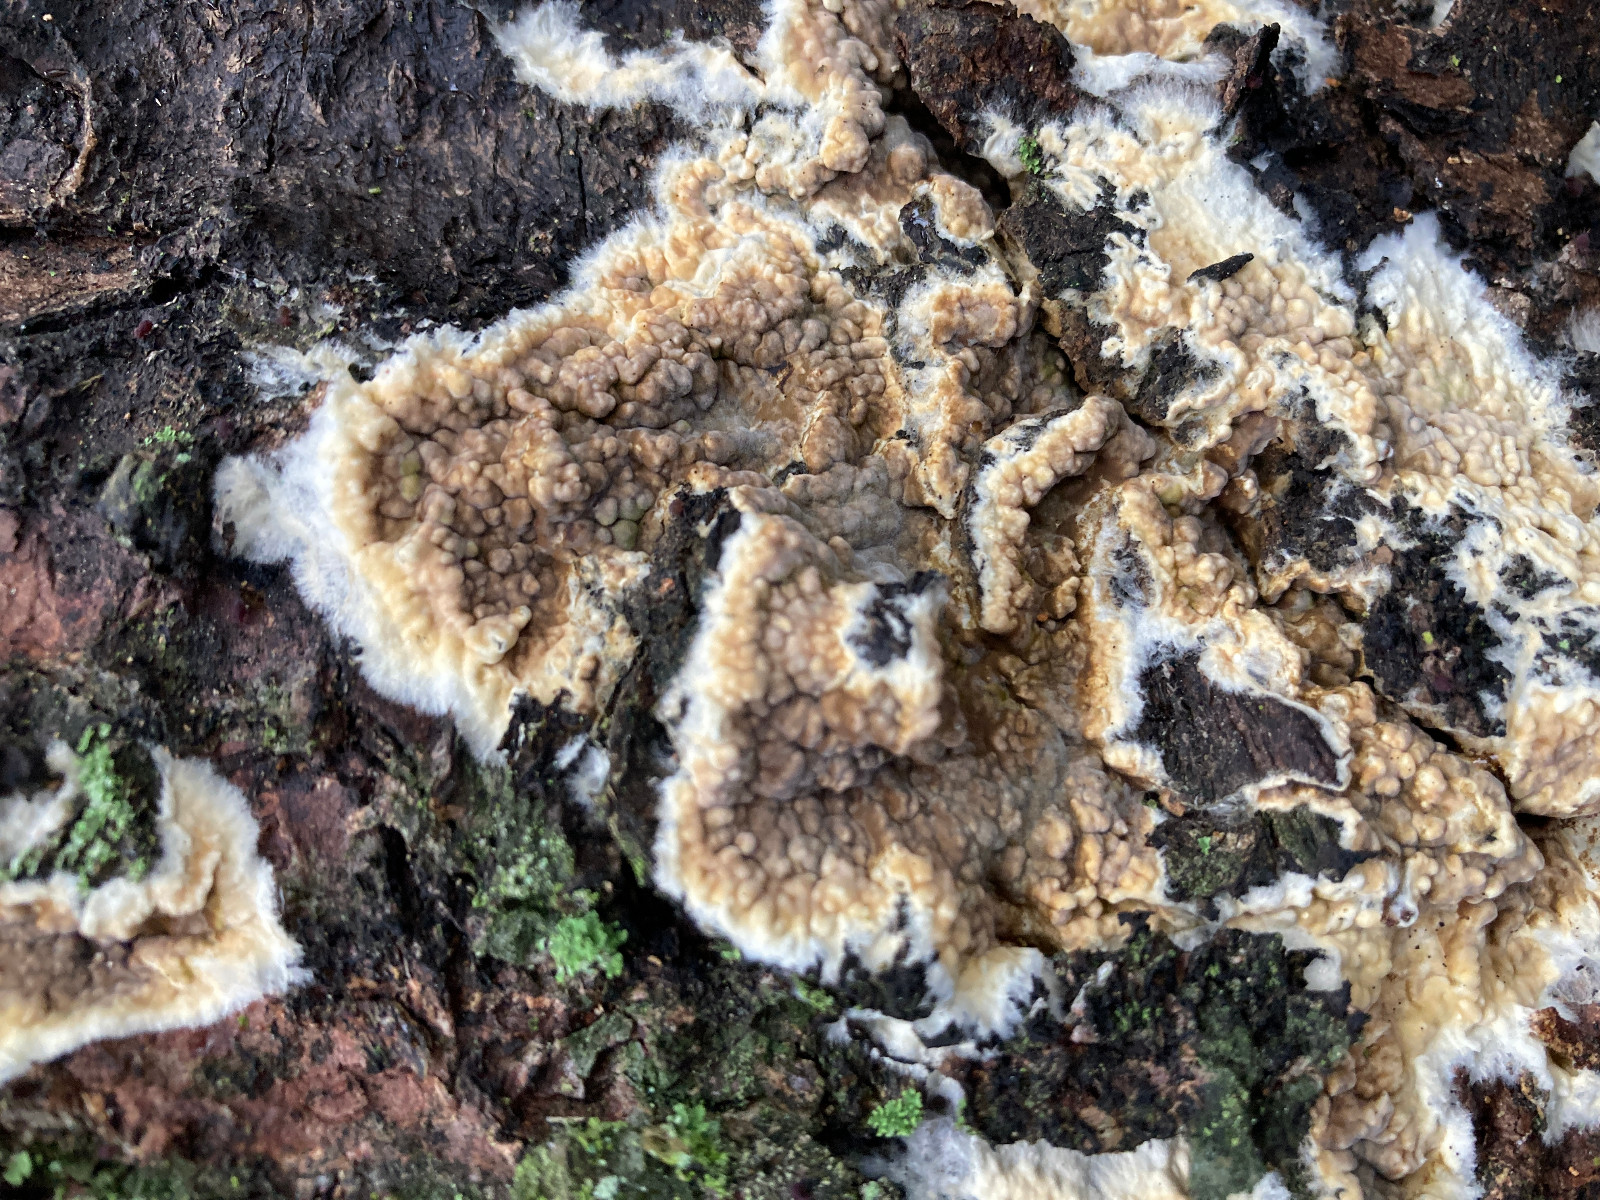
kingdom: Fungi
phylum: Basidiomycota
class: Agaricomycetes
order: Boletales
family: Coniophoraceae
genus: Coniophora
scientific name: Coniophora puteana
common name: gul tømmersvamp
